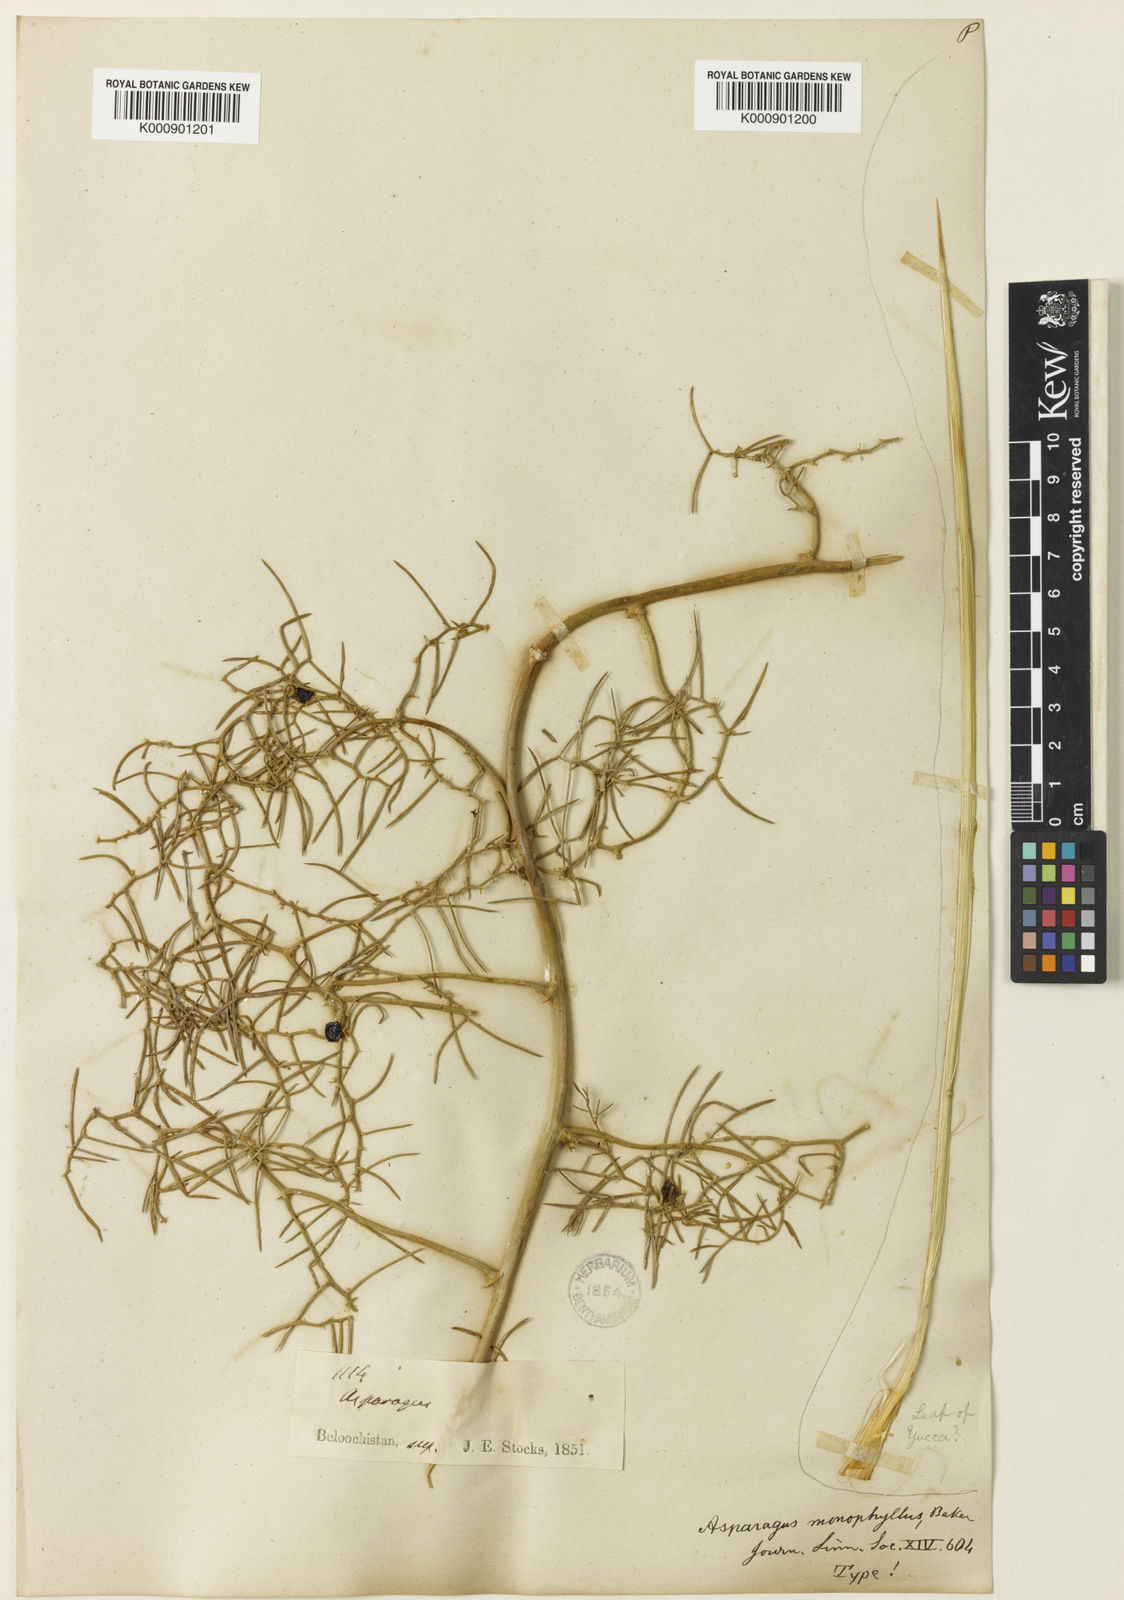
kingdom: Plantae
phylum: Tracheophyta
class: Liliopsida
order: Asparagales
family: Asparagaceae
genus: Asparagus
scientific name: Asparagus monophyllus
